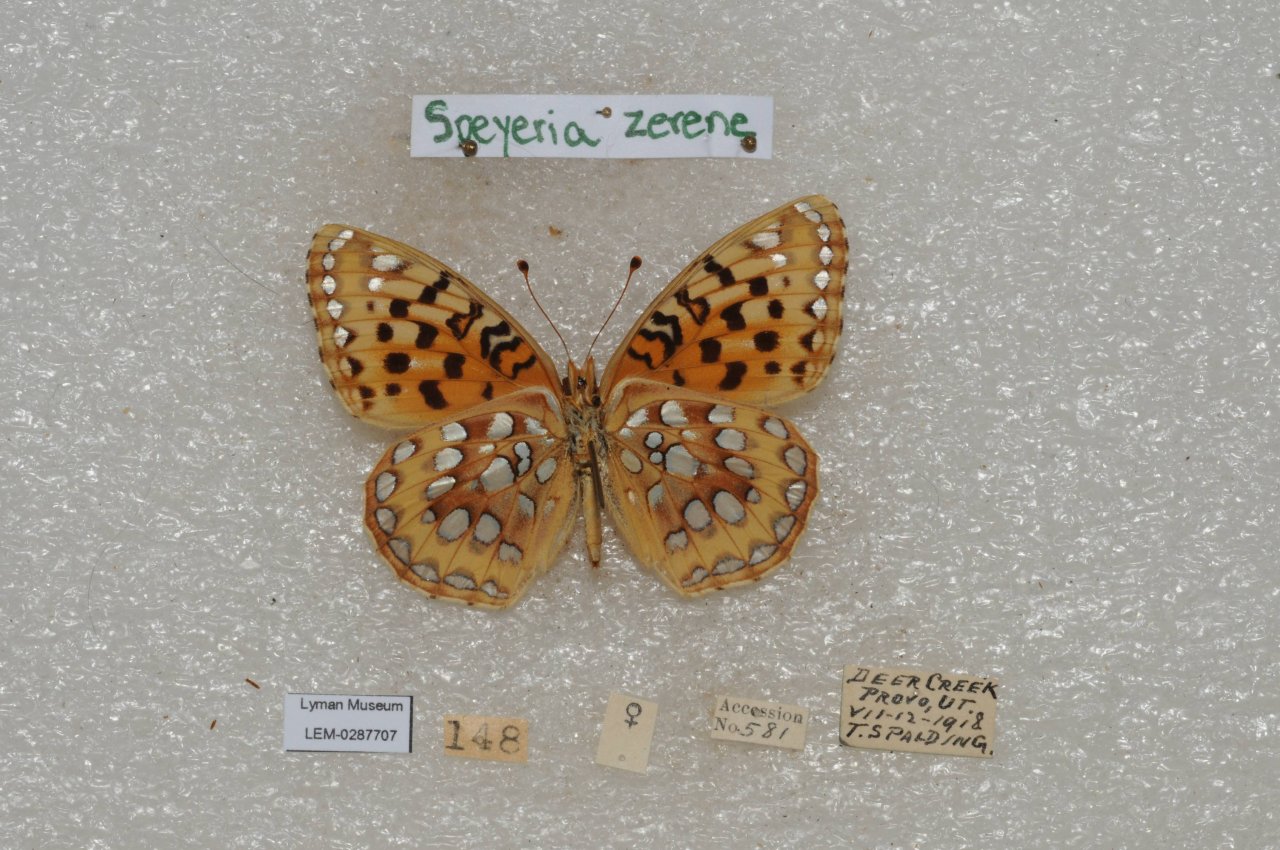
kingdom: Animalia
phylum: Arthropoda
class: Insecta
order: Lepidoptera
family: Nymphalidae
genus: Speyeria
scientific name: Speyeria zerene
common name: Zerene Fritillary
